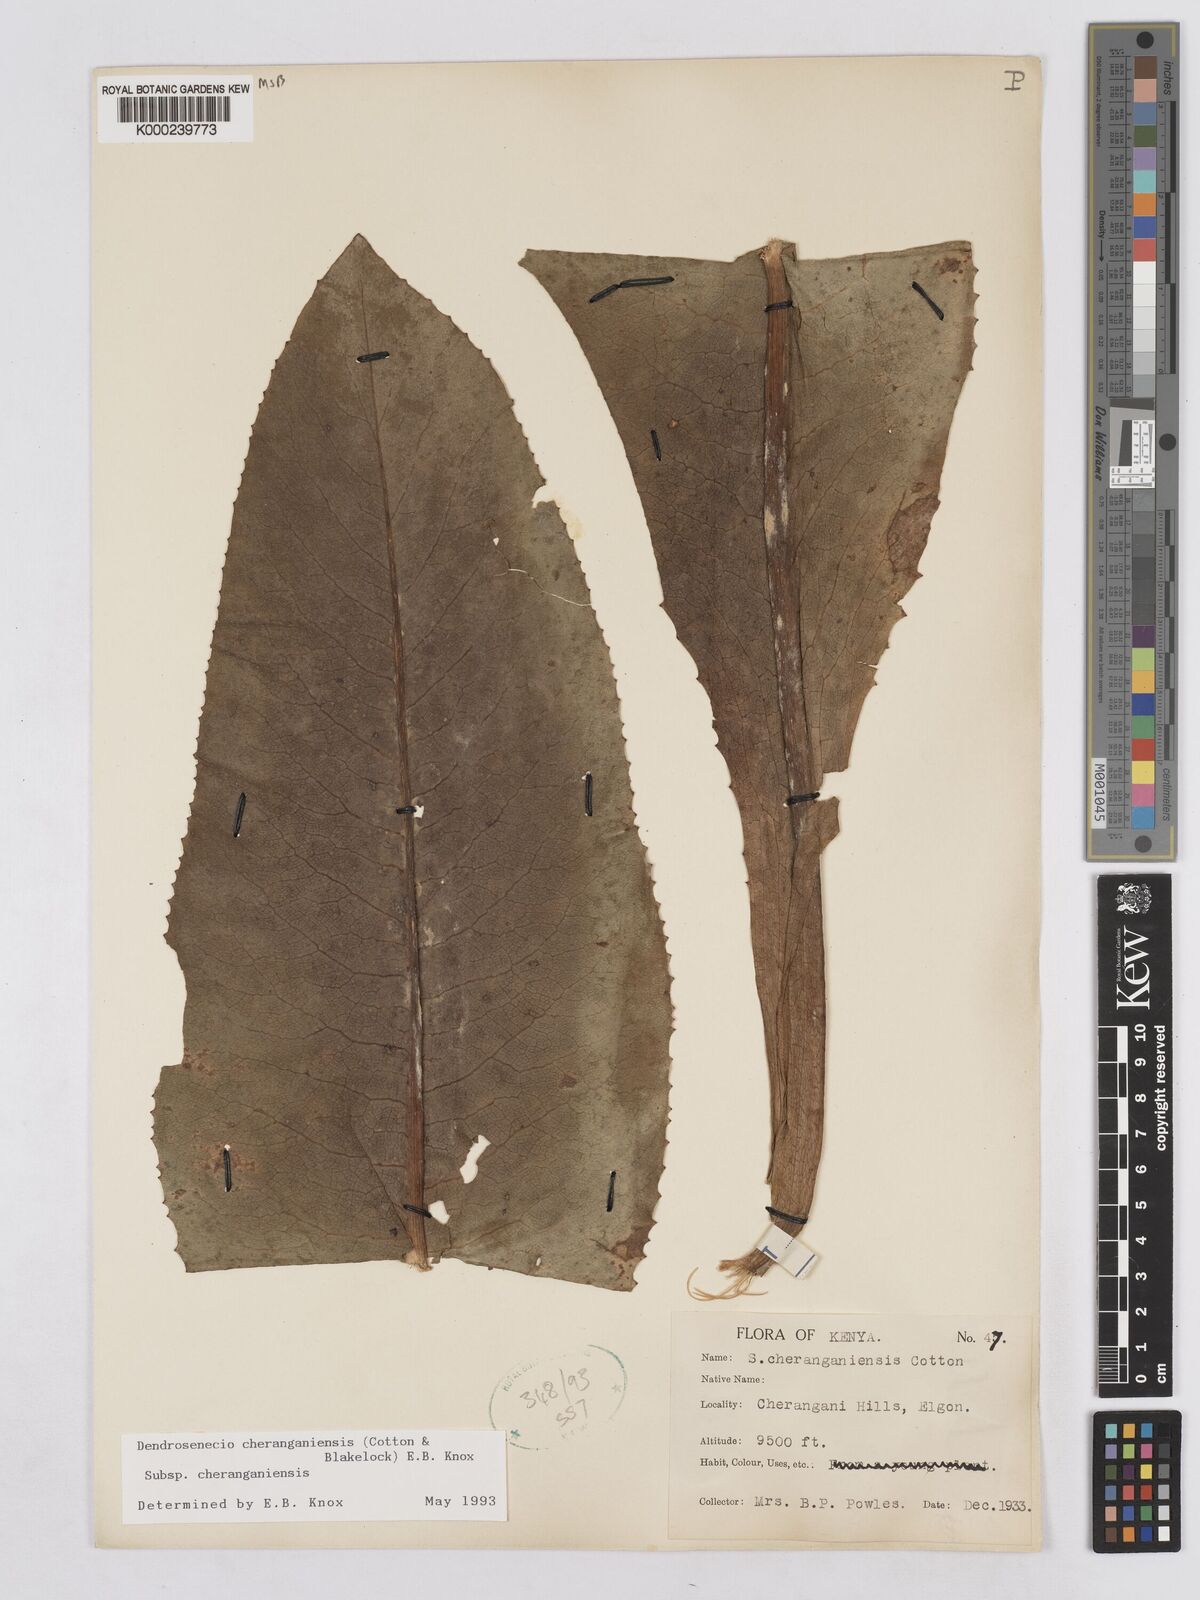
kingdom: Plantae
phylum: Tracheophyta
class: Magnoliopsida
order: Asterales
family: Asteraceae
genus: Dendrosenecio
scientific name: Dendrosenecio cheranganiensis
